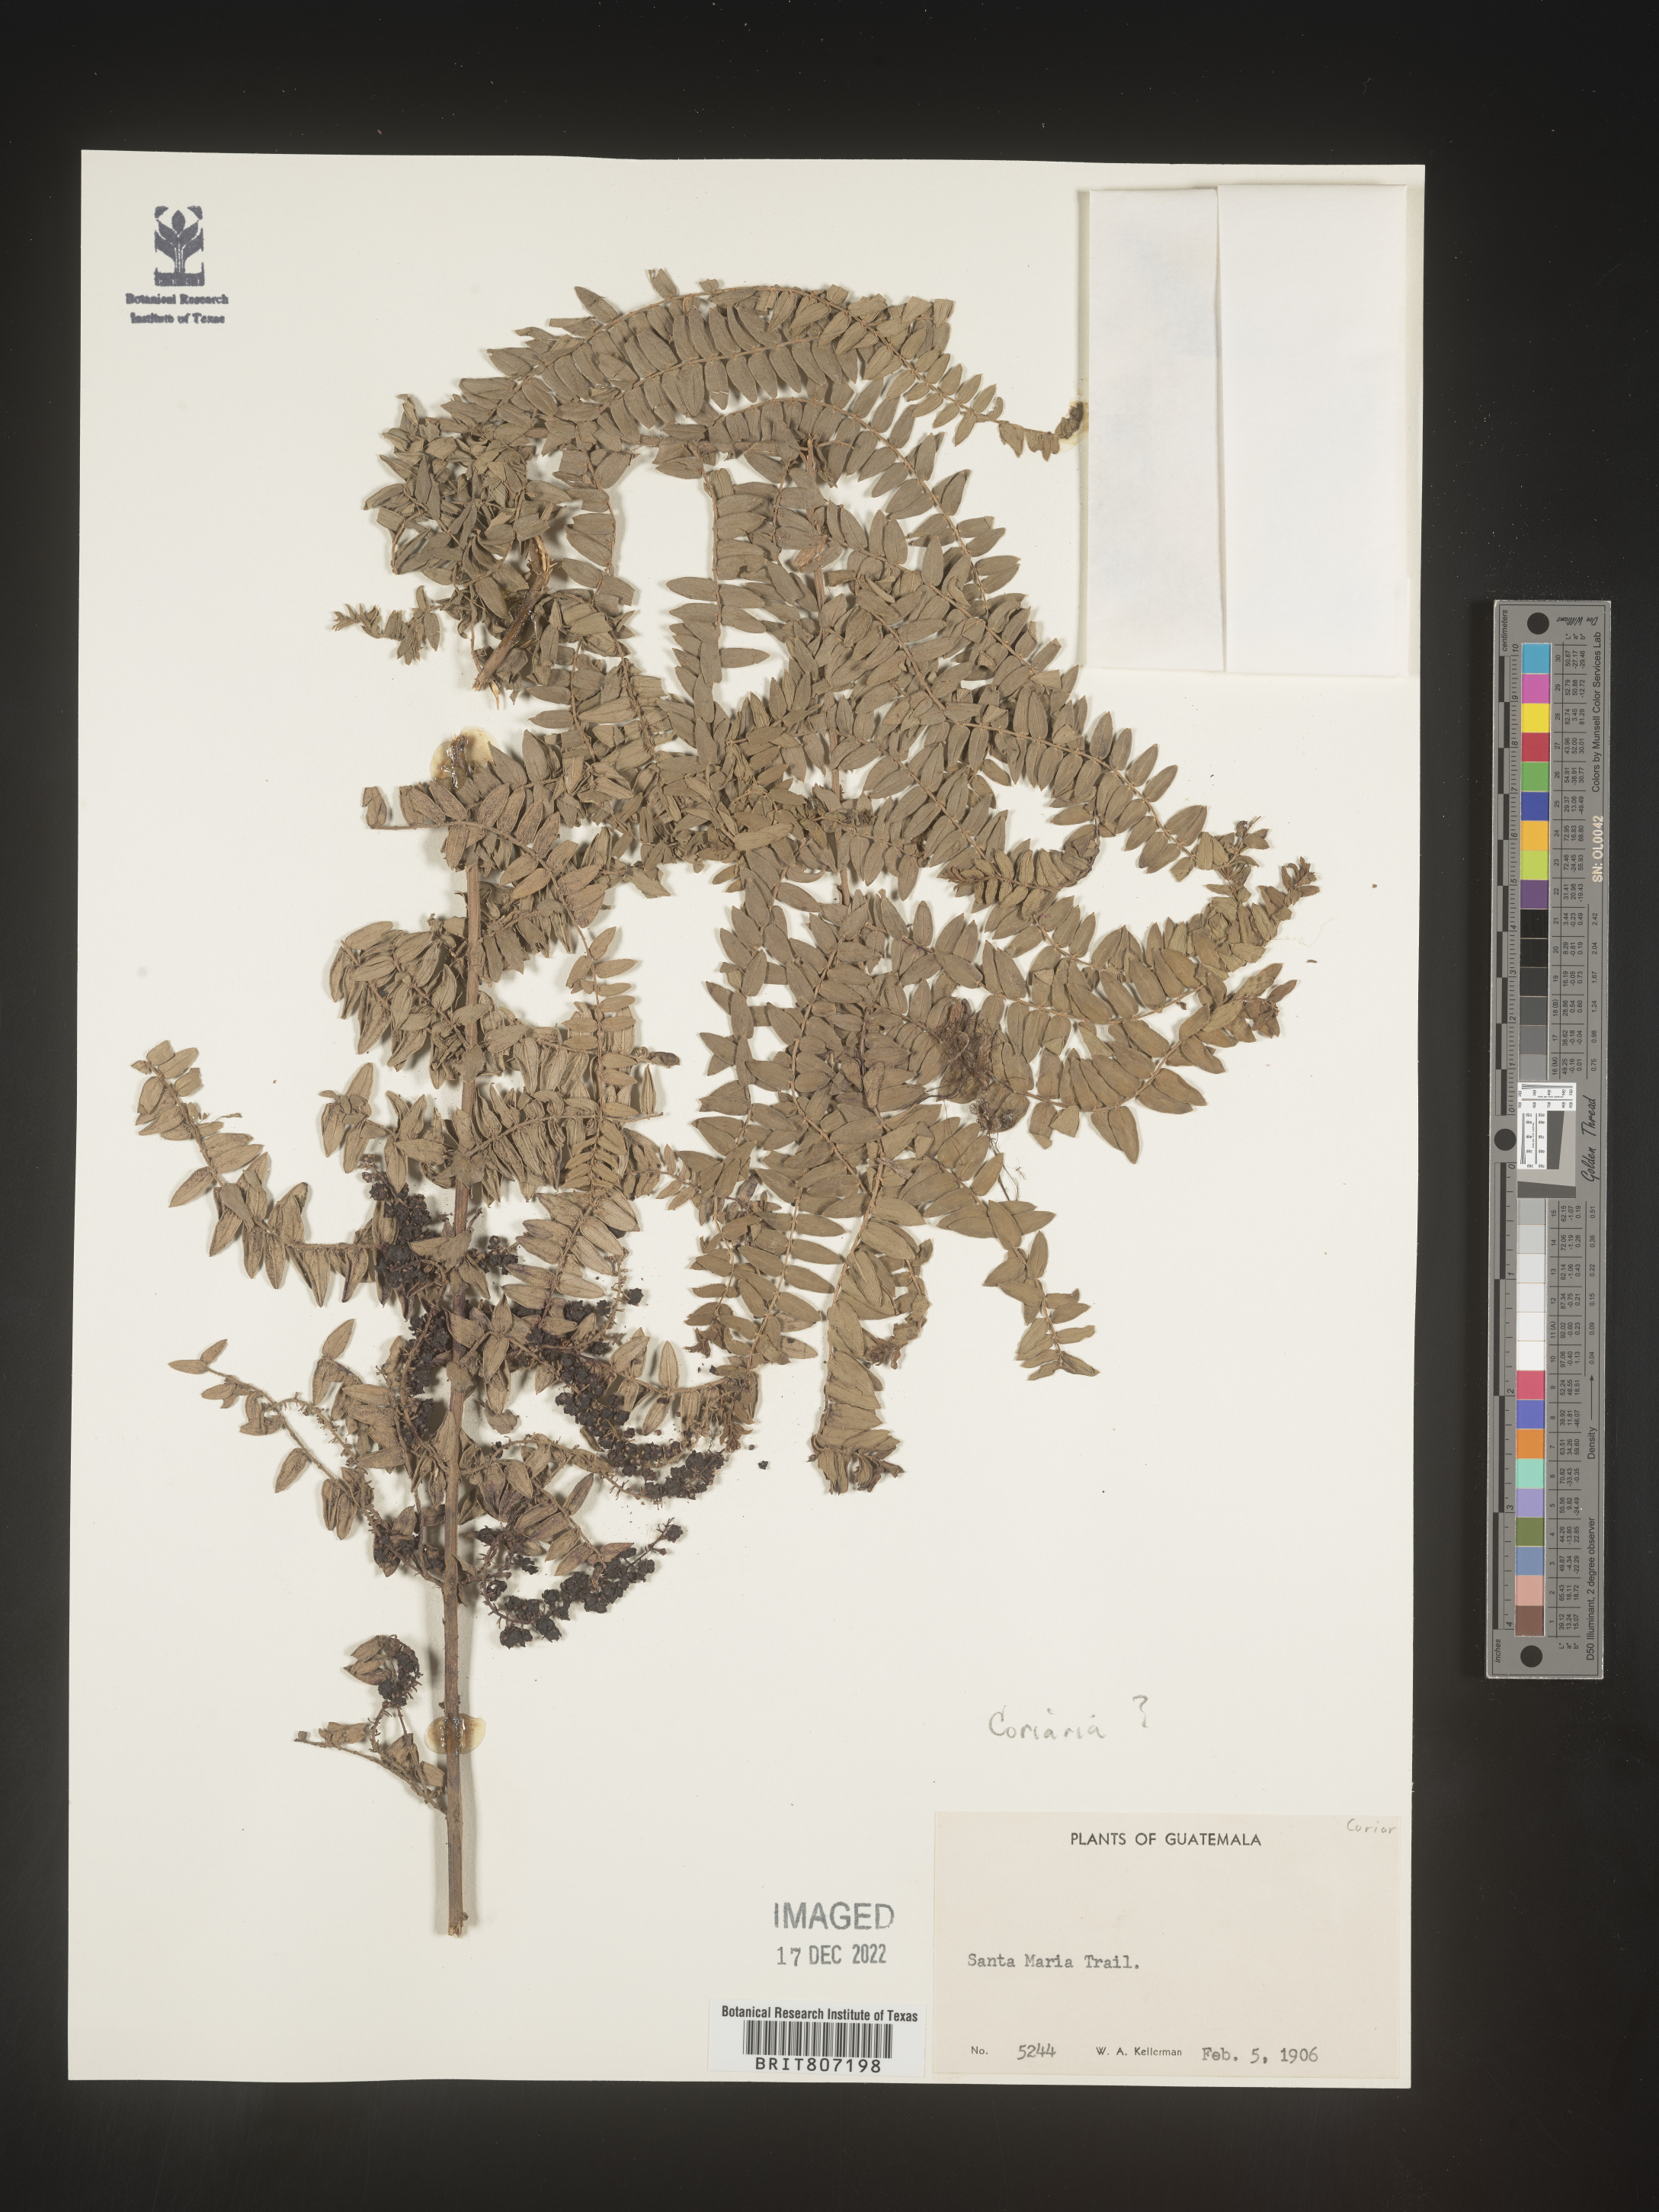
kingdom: Plantae
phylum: Tracheophyta
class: Magnoliopsida
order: Cucurbitales
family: Coriariaceae
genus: Coriaria
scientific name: Coriaria
